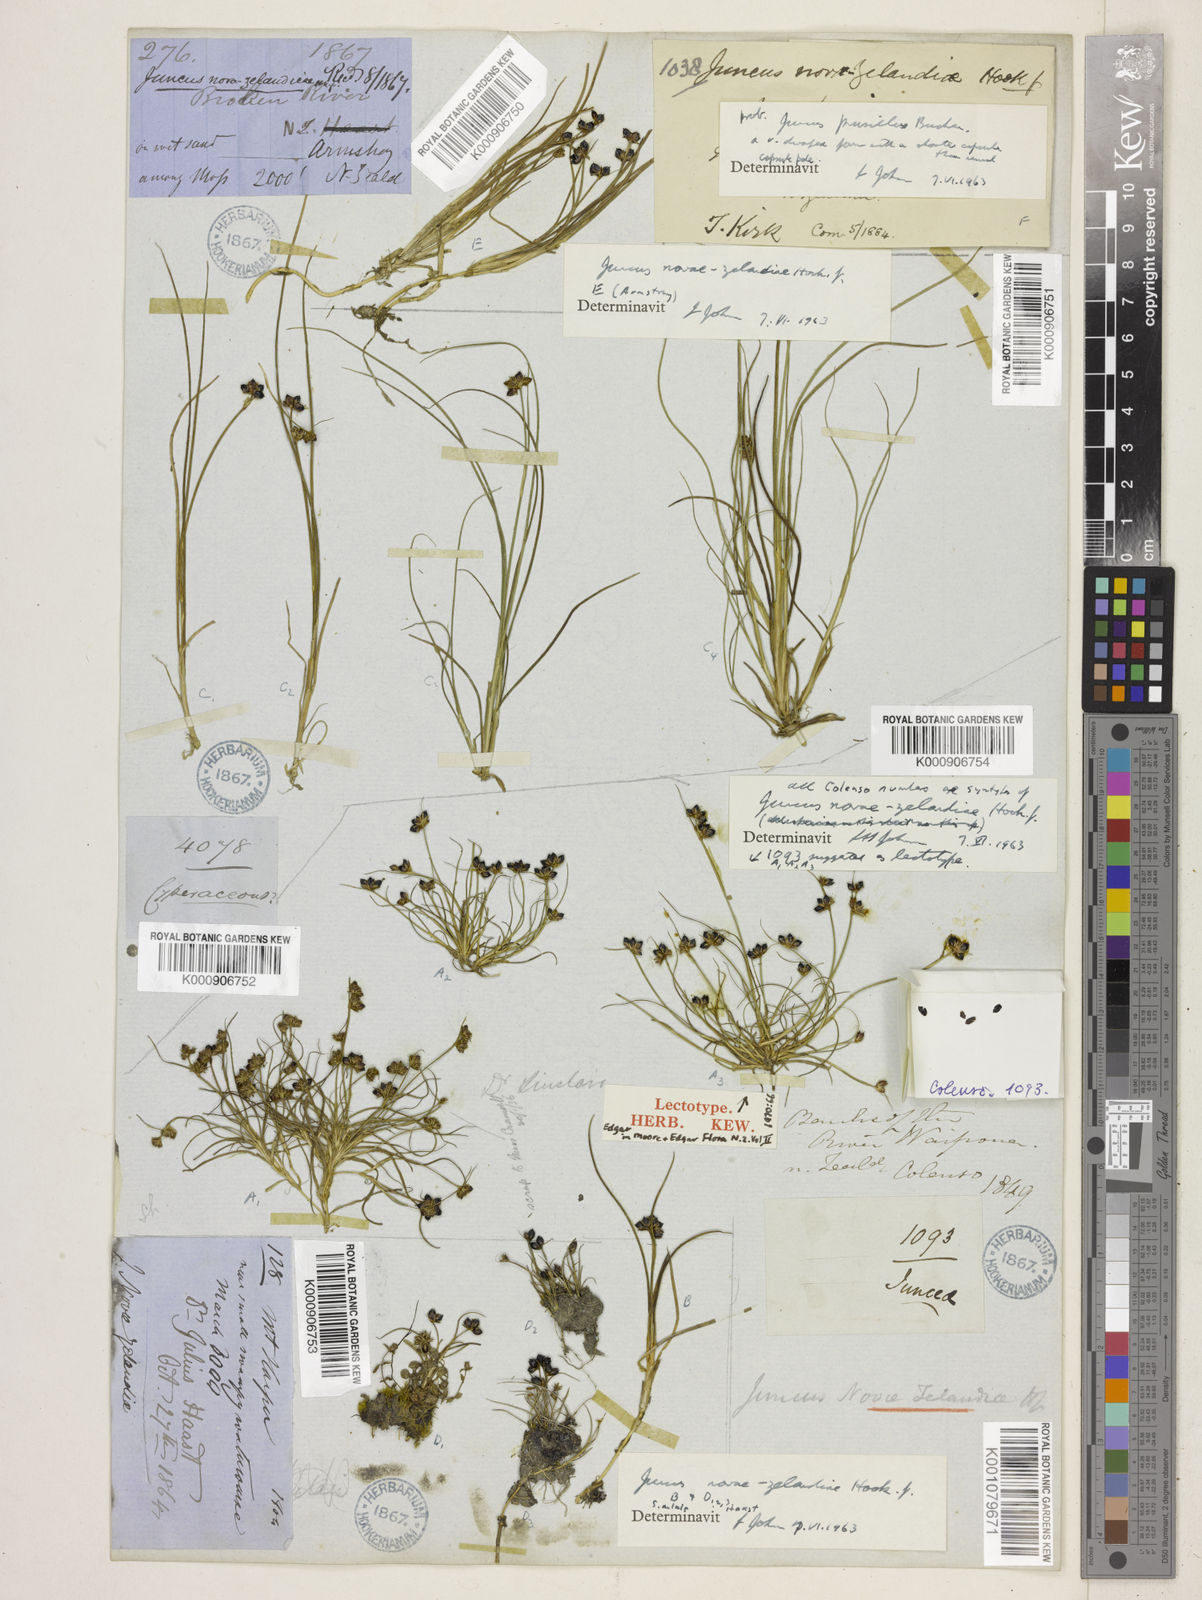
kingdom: Plantae
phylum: Tracheophyta
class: Liliopsida
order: Poales
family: Juncaceae
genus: Juncus
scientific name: Juncus novae-zelandiae
